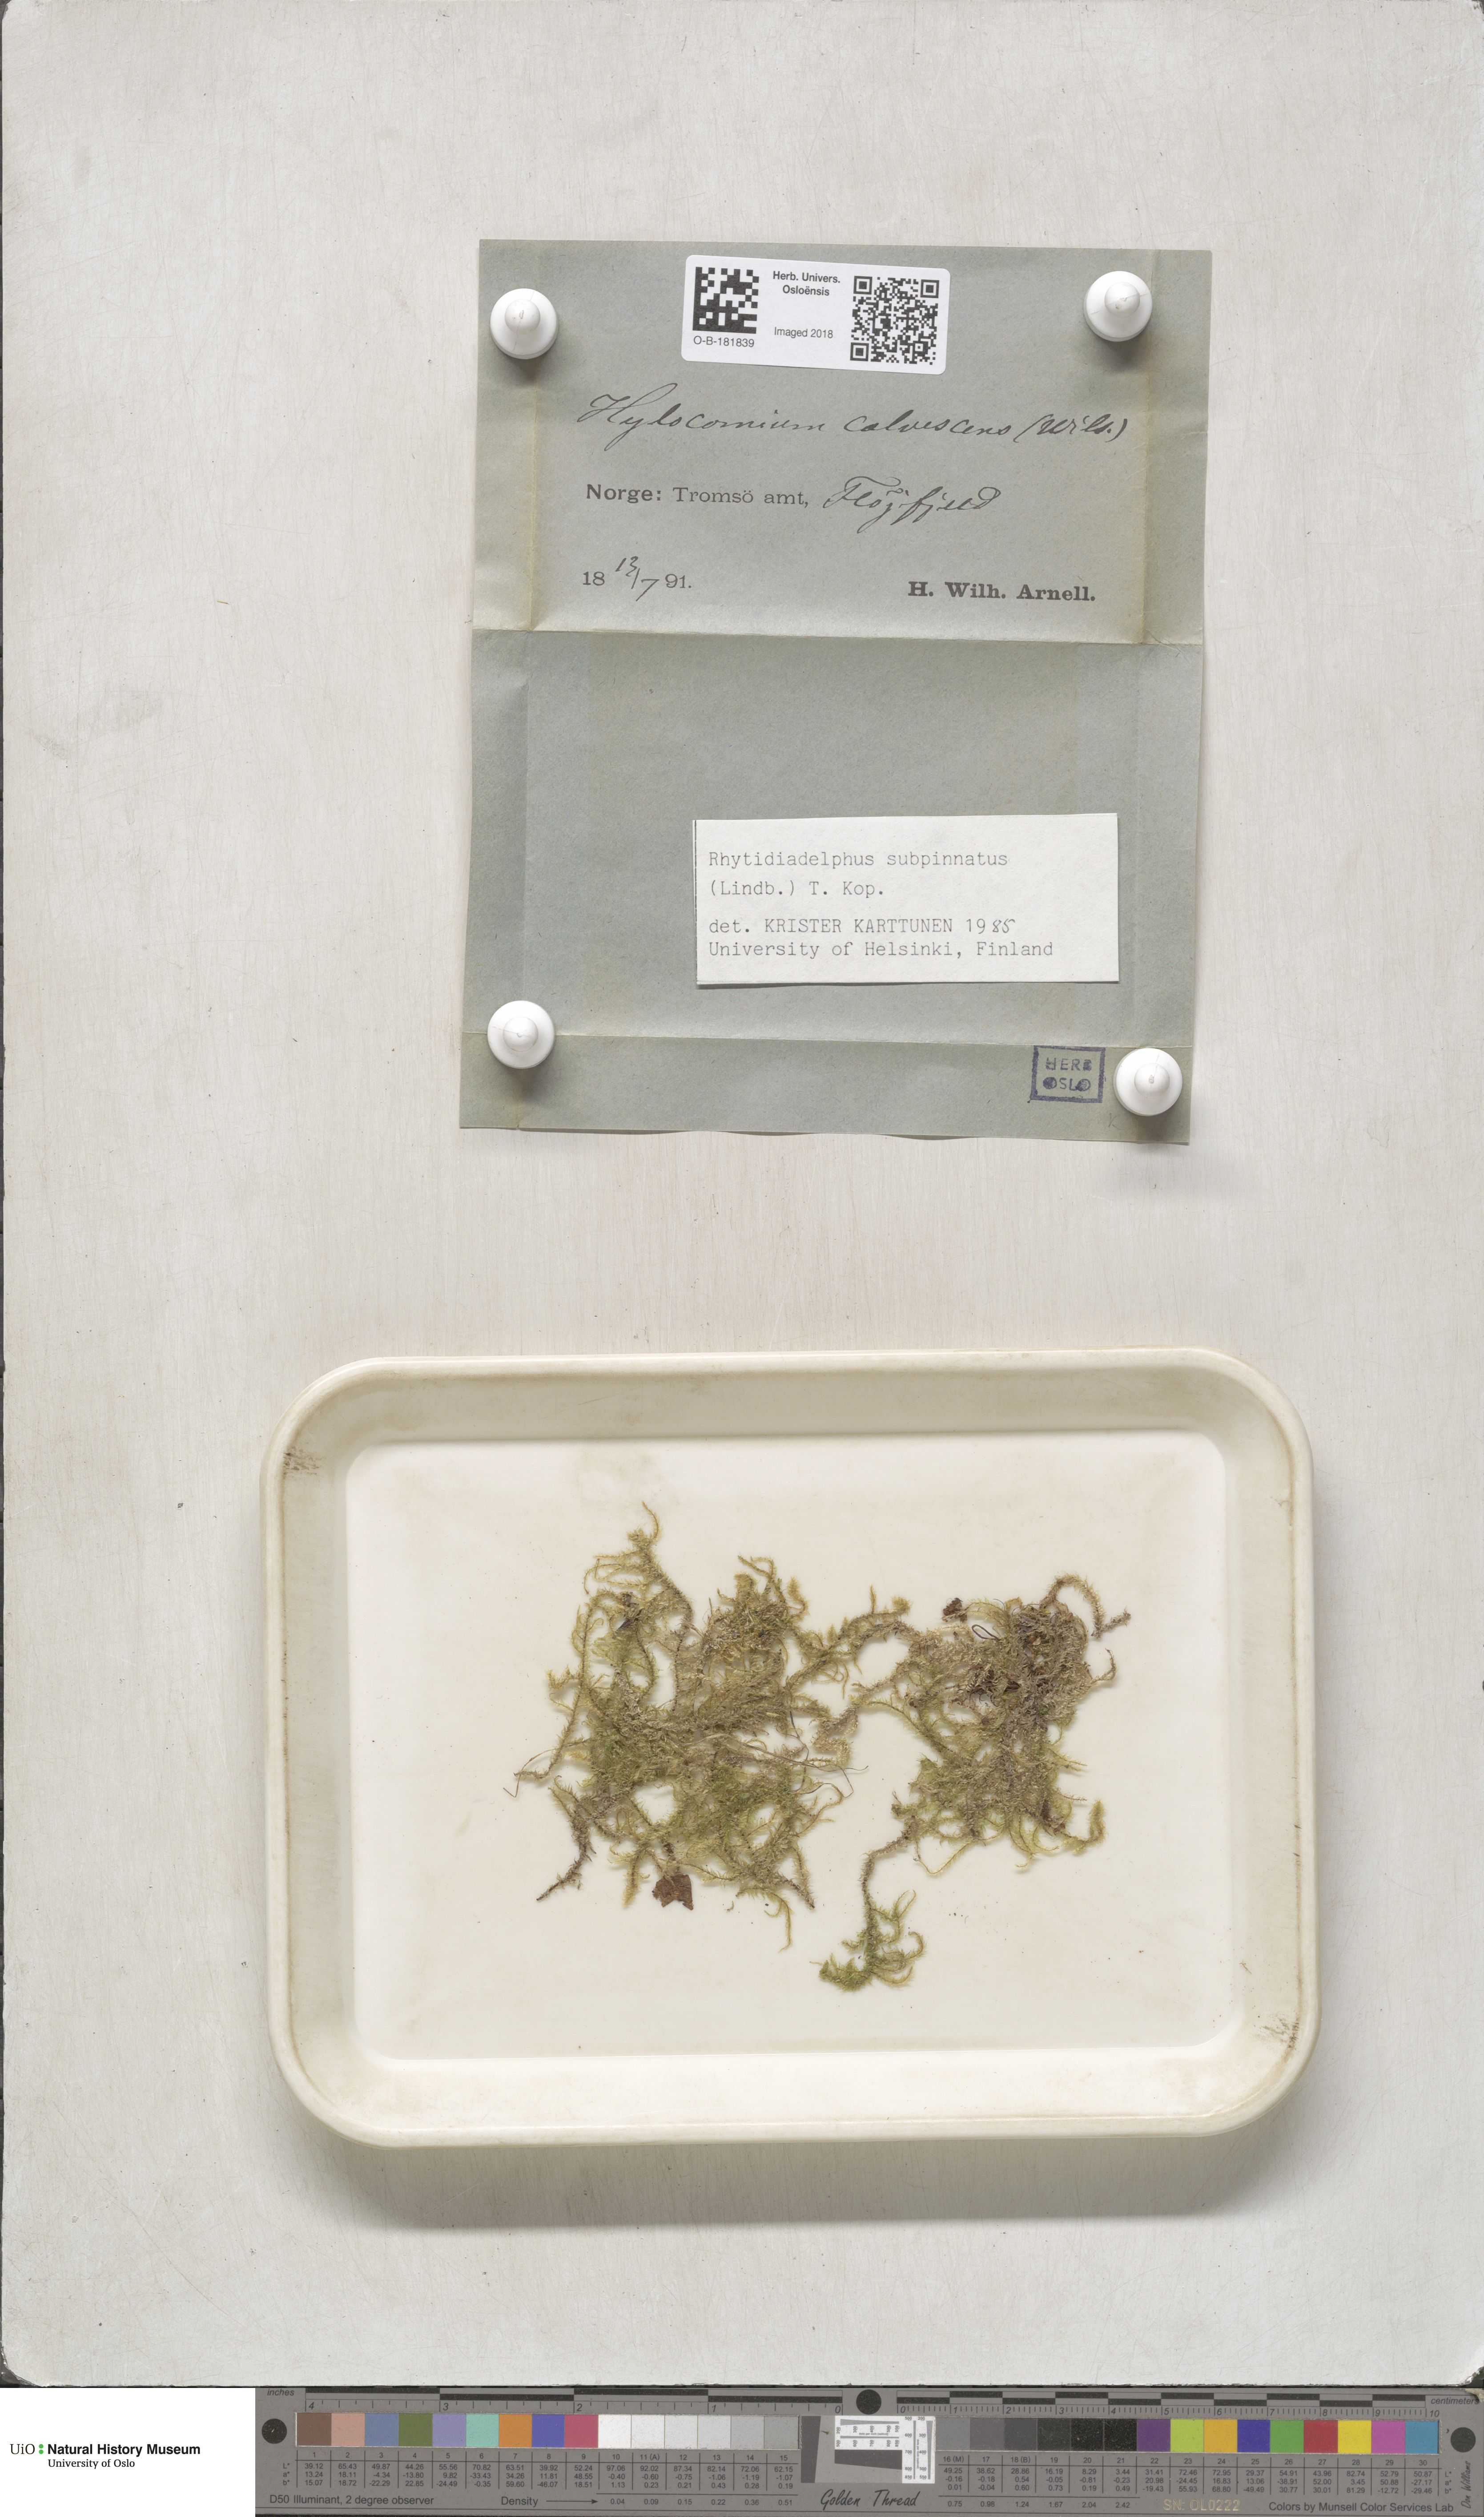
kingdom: Plantae
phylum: Bryophyta
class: Bryopsida
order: Hypnales
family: Hylocomiaceae
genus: Rhytidiadelphus
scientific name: Rhytidiadelphus subpinnatus
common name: Subpinnate gooseneck moss
